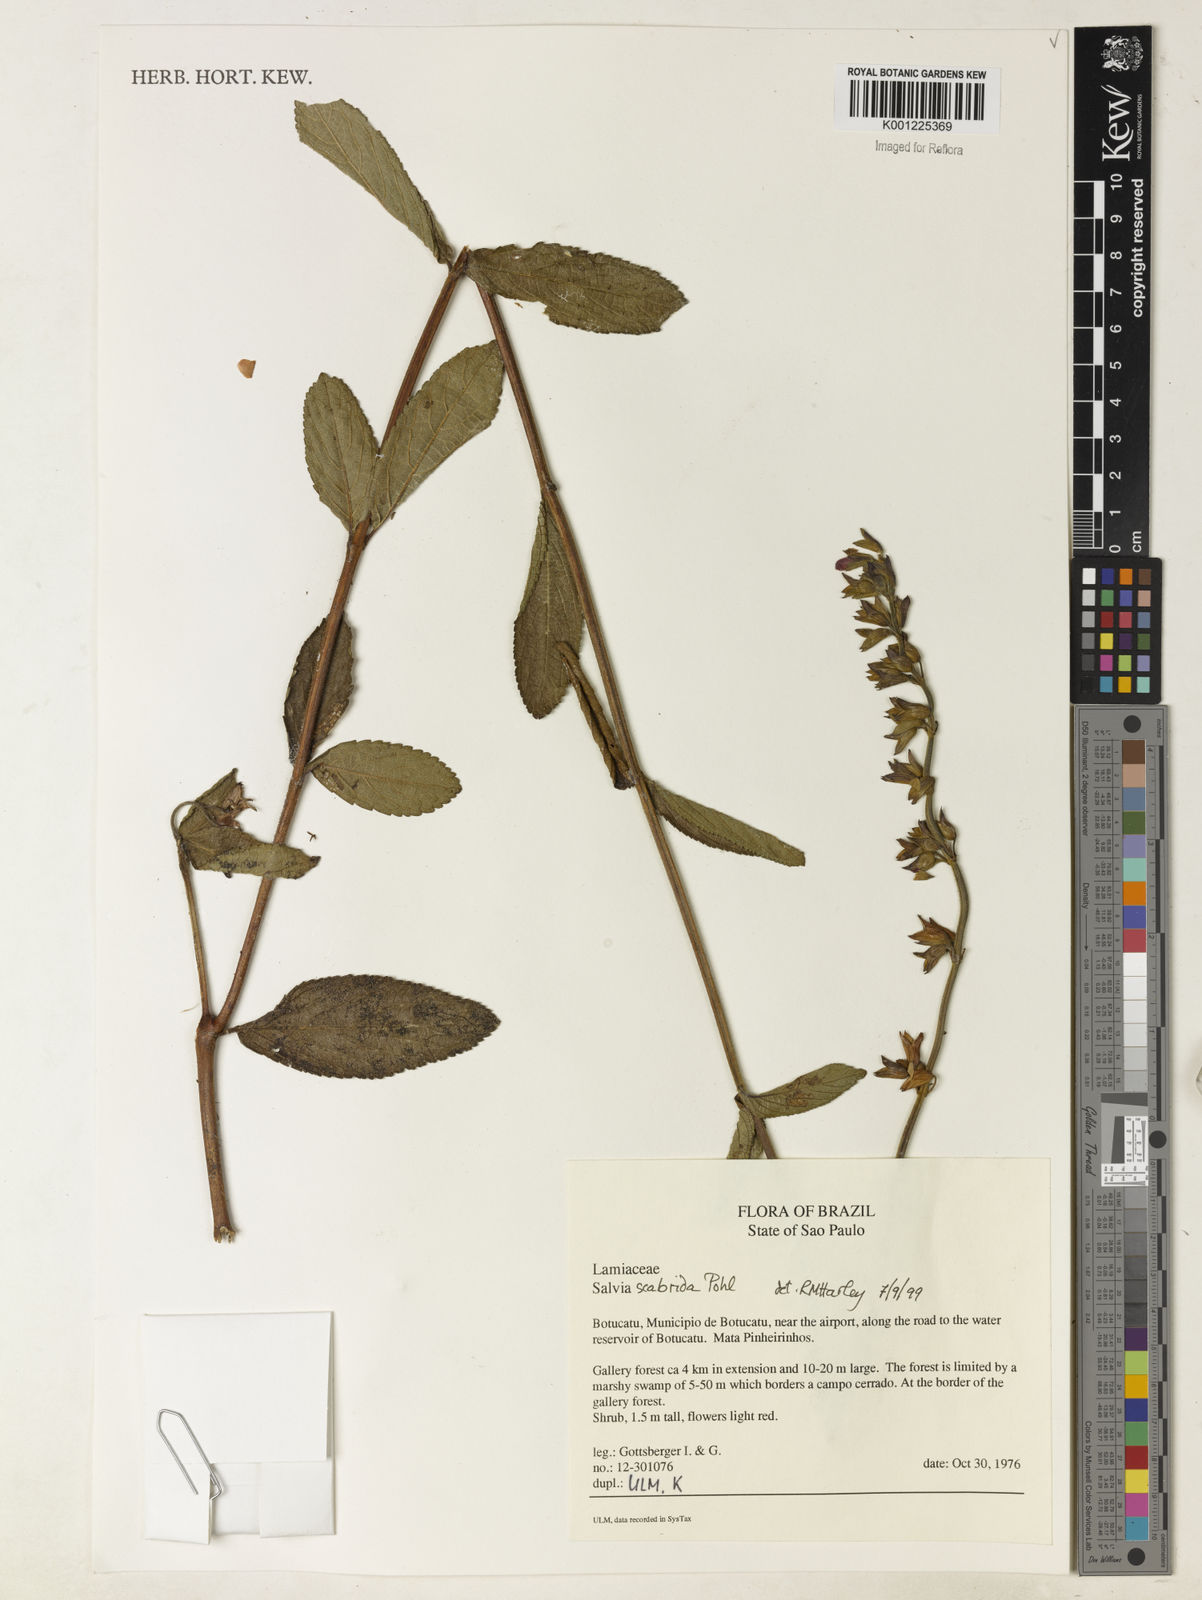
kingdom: Plantae
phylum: Tracheophyta
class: Magnoliopsida
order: Lamiales
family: Lamiaceae
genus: Salvia
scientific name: Salvia scabrida
